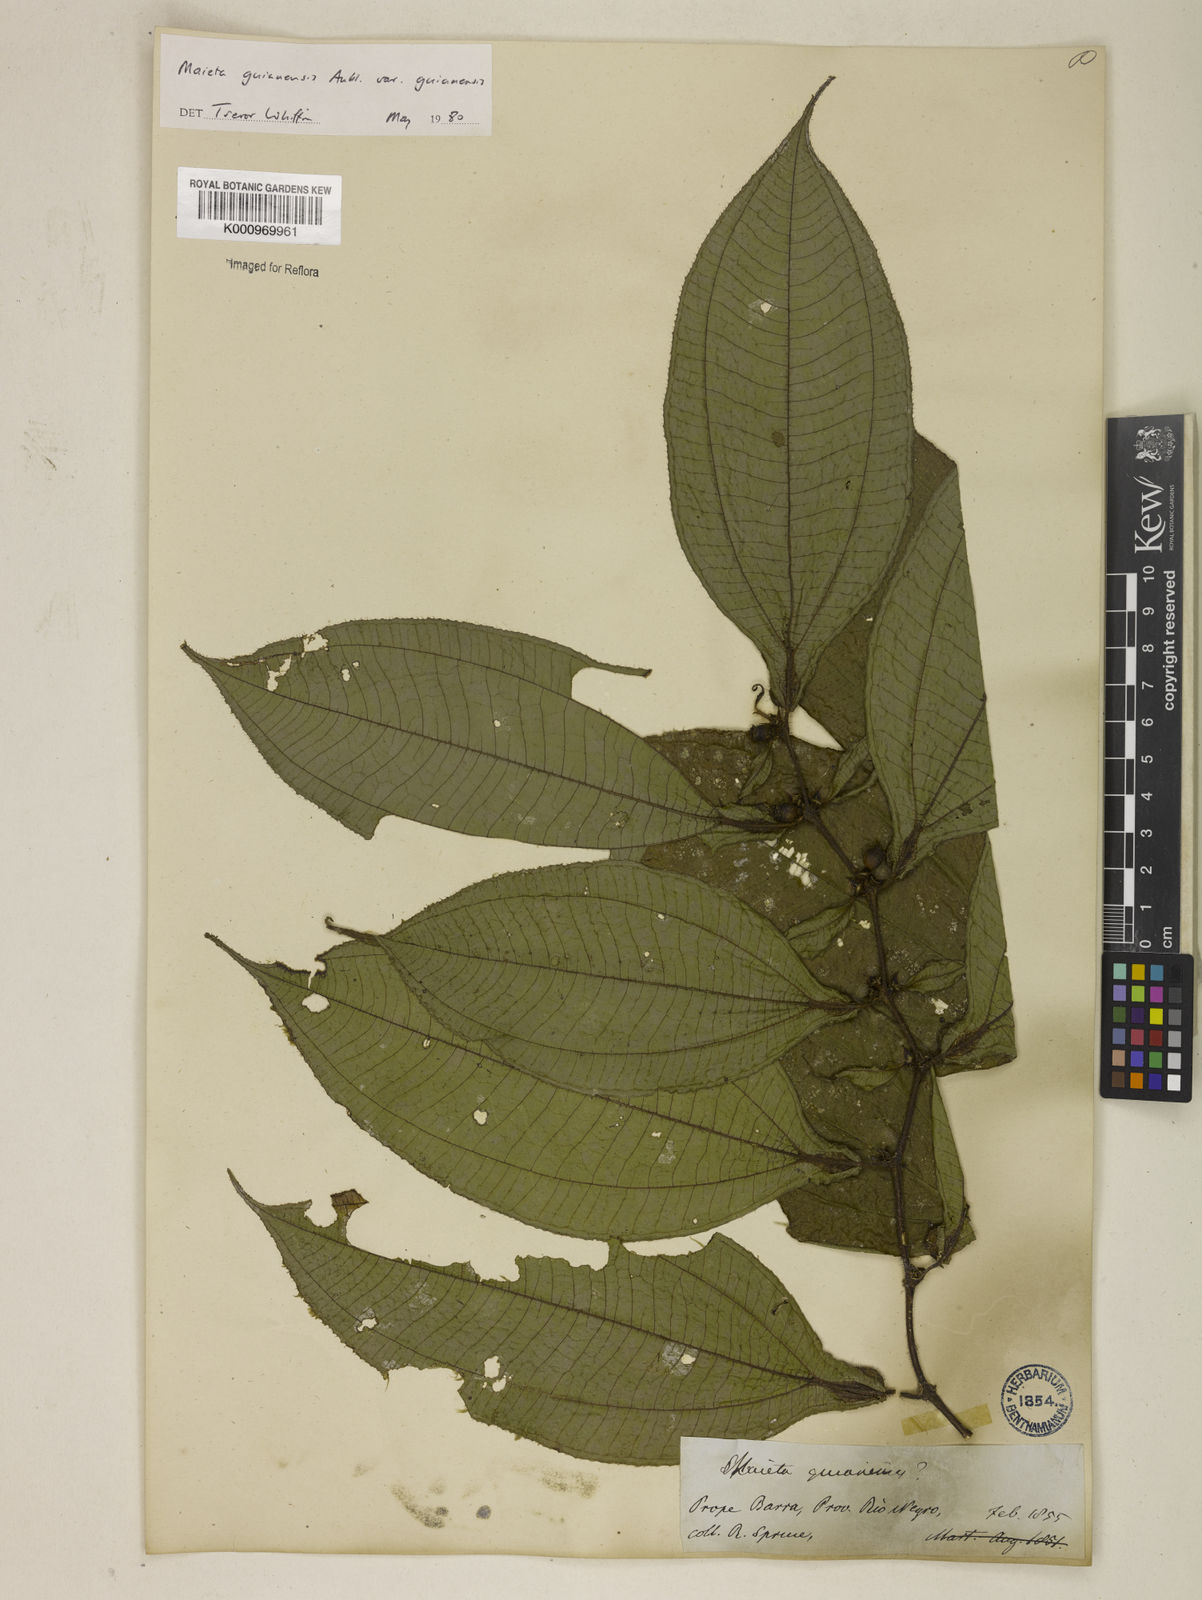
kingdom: Plantae
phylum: Tracheophyta
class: Magnoliopsida
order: Myrtales
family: Melastomataceae
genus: Miconia
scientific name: Miconia mayeta
